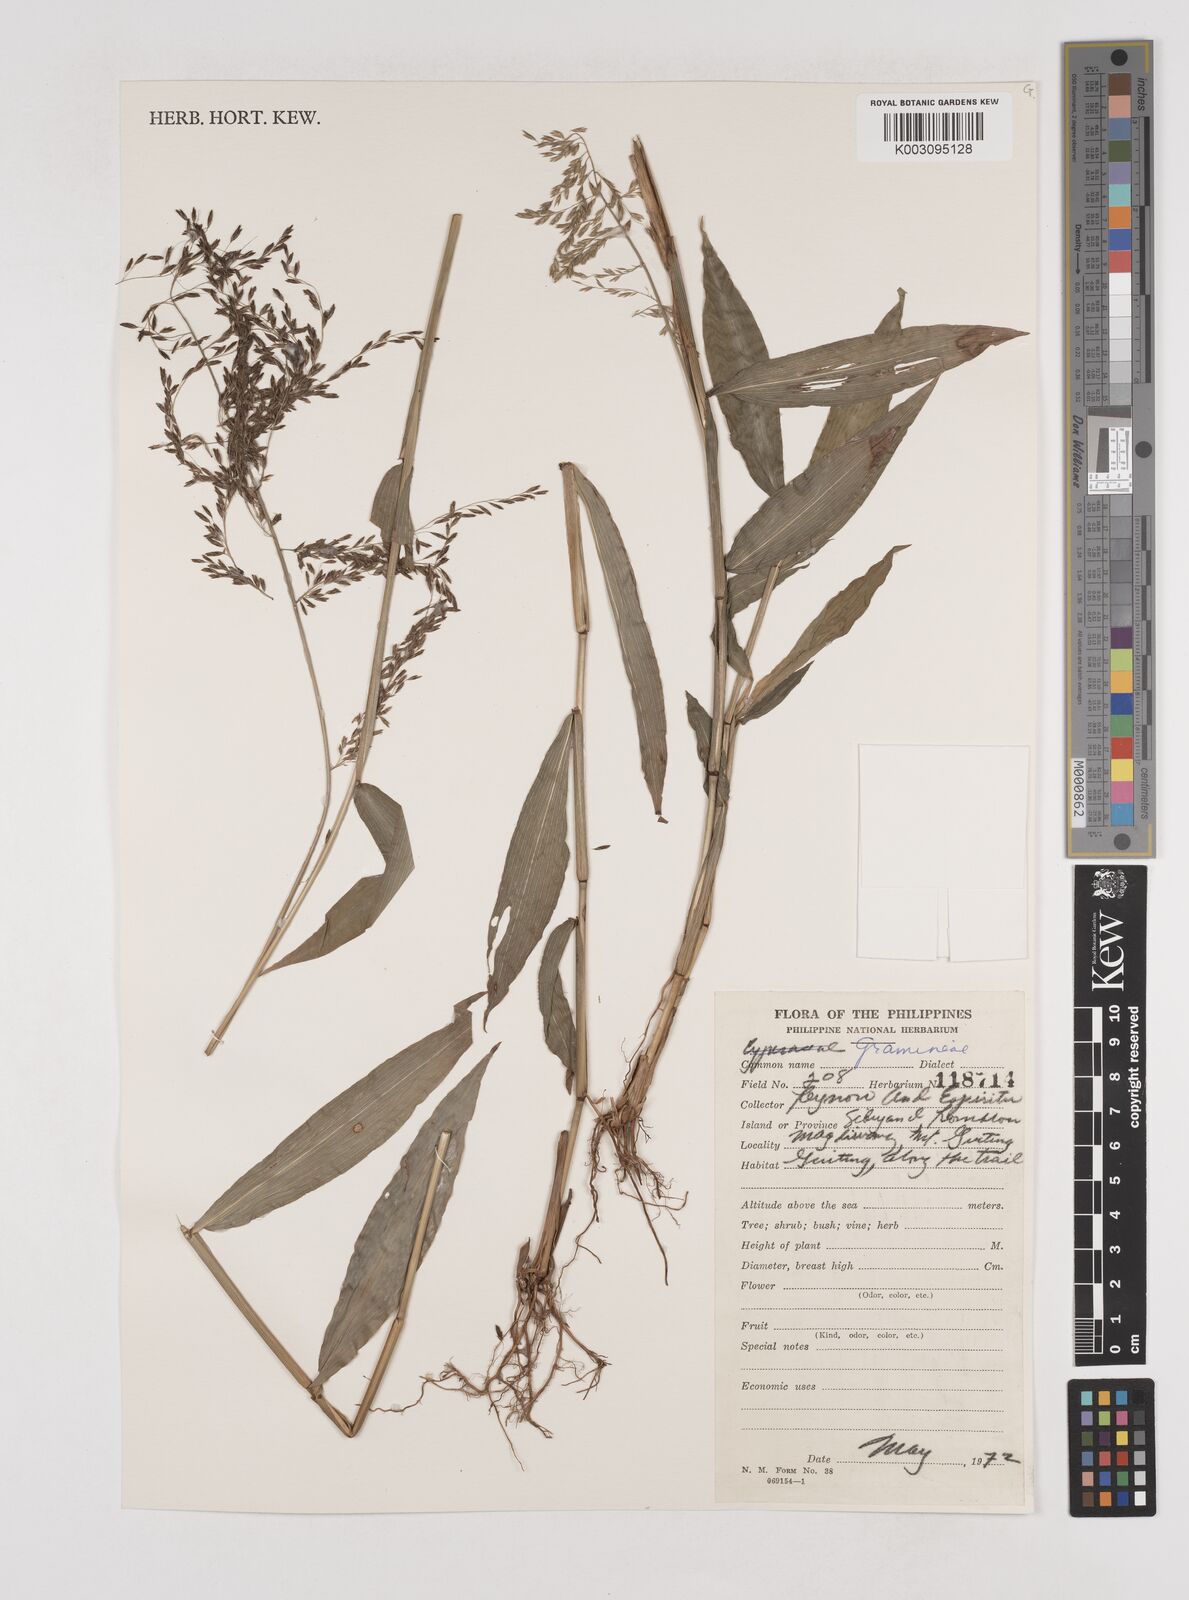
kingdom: Plantae
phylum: Tracheophyta
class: Liliopsida
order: Poales
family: Poaceae
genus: Centotheca
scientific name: Centotheca lappacea
